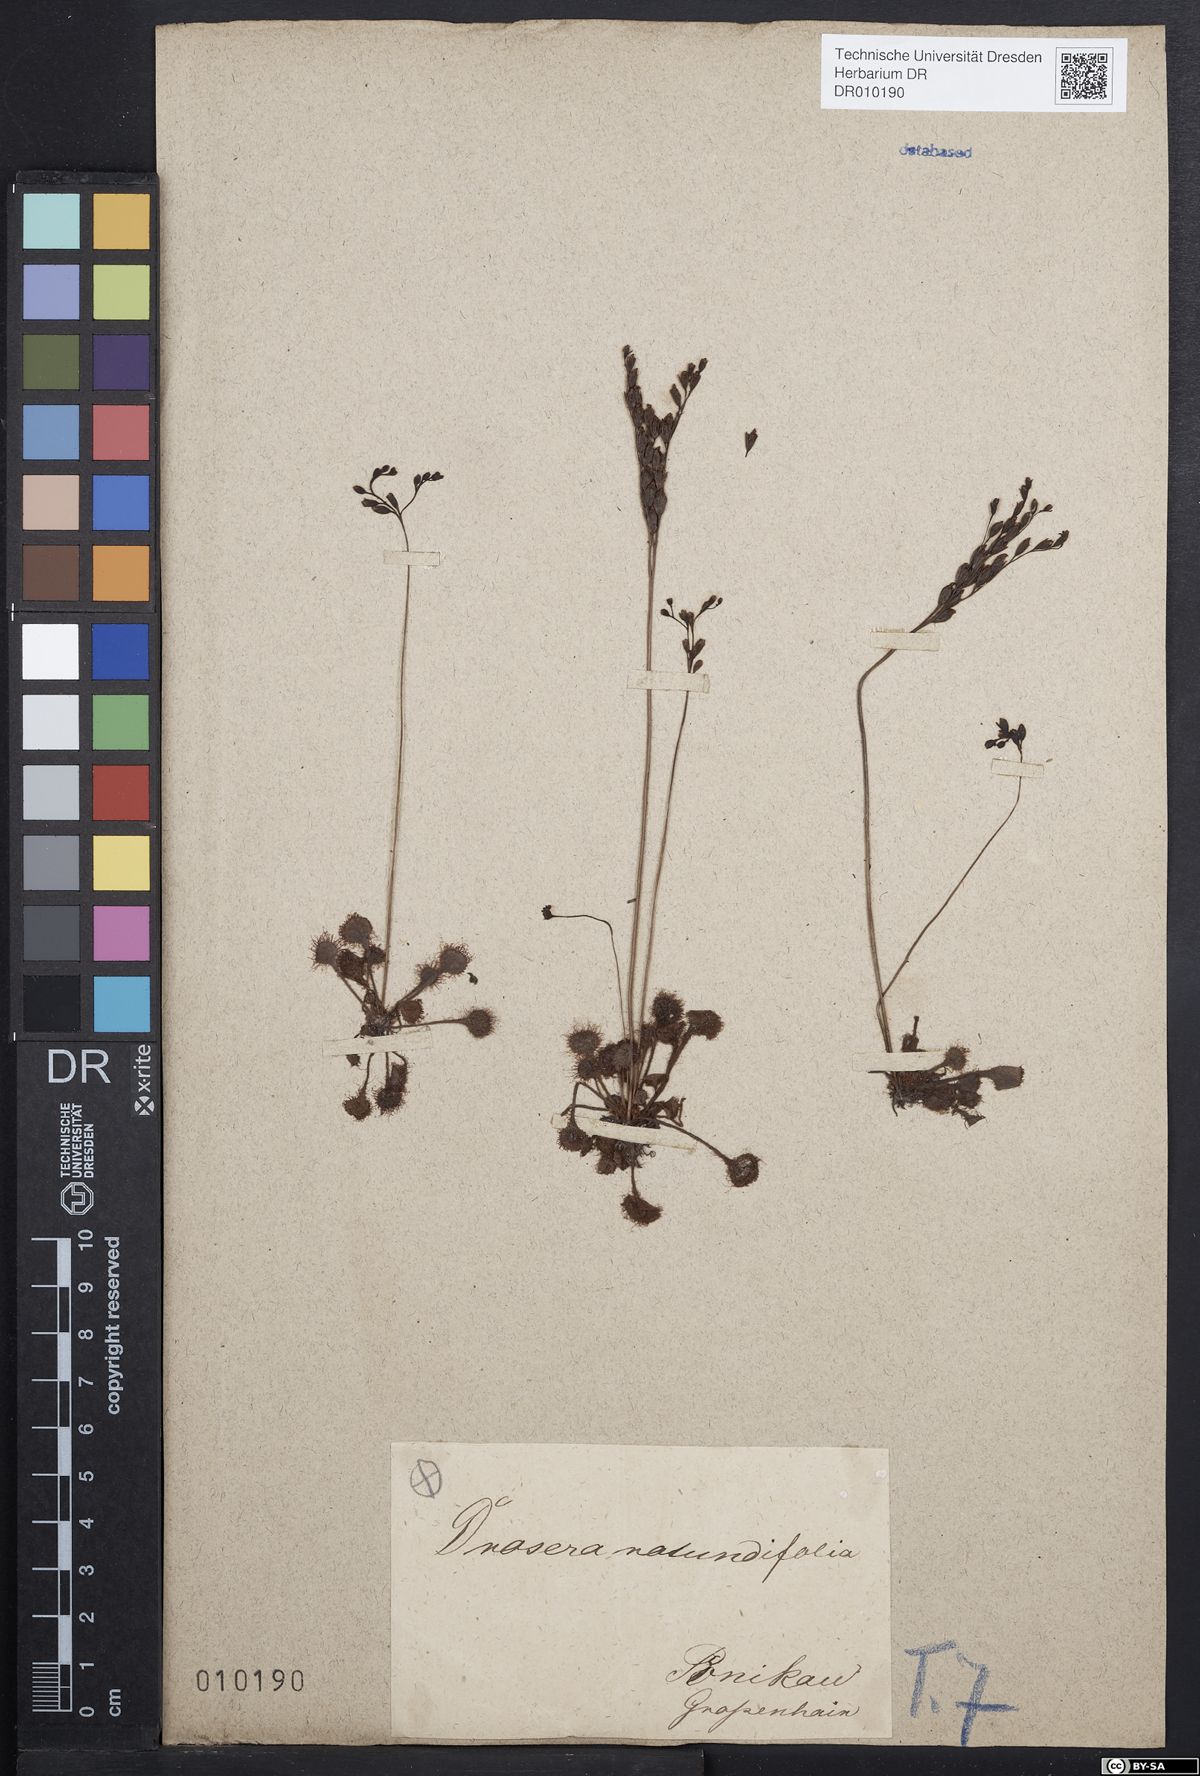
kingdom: Plantae
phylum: Tracheophyta
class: Magnoliopsida
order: Caryophyllales
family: Droseraceae
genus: Drosera
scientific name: Drosera rotundifolia
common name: Round-leaved sundew
